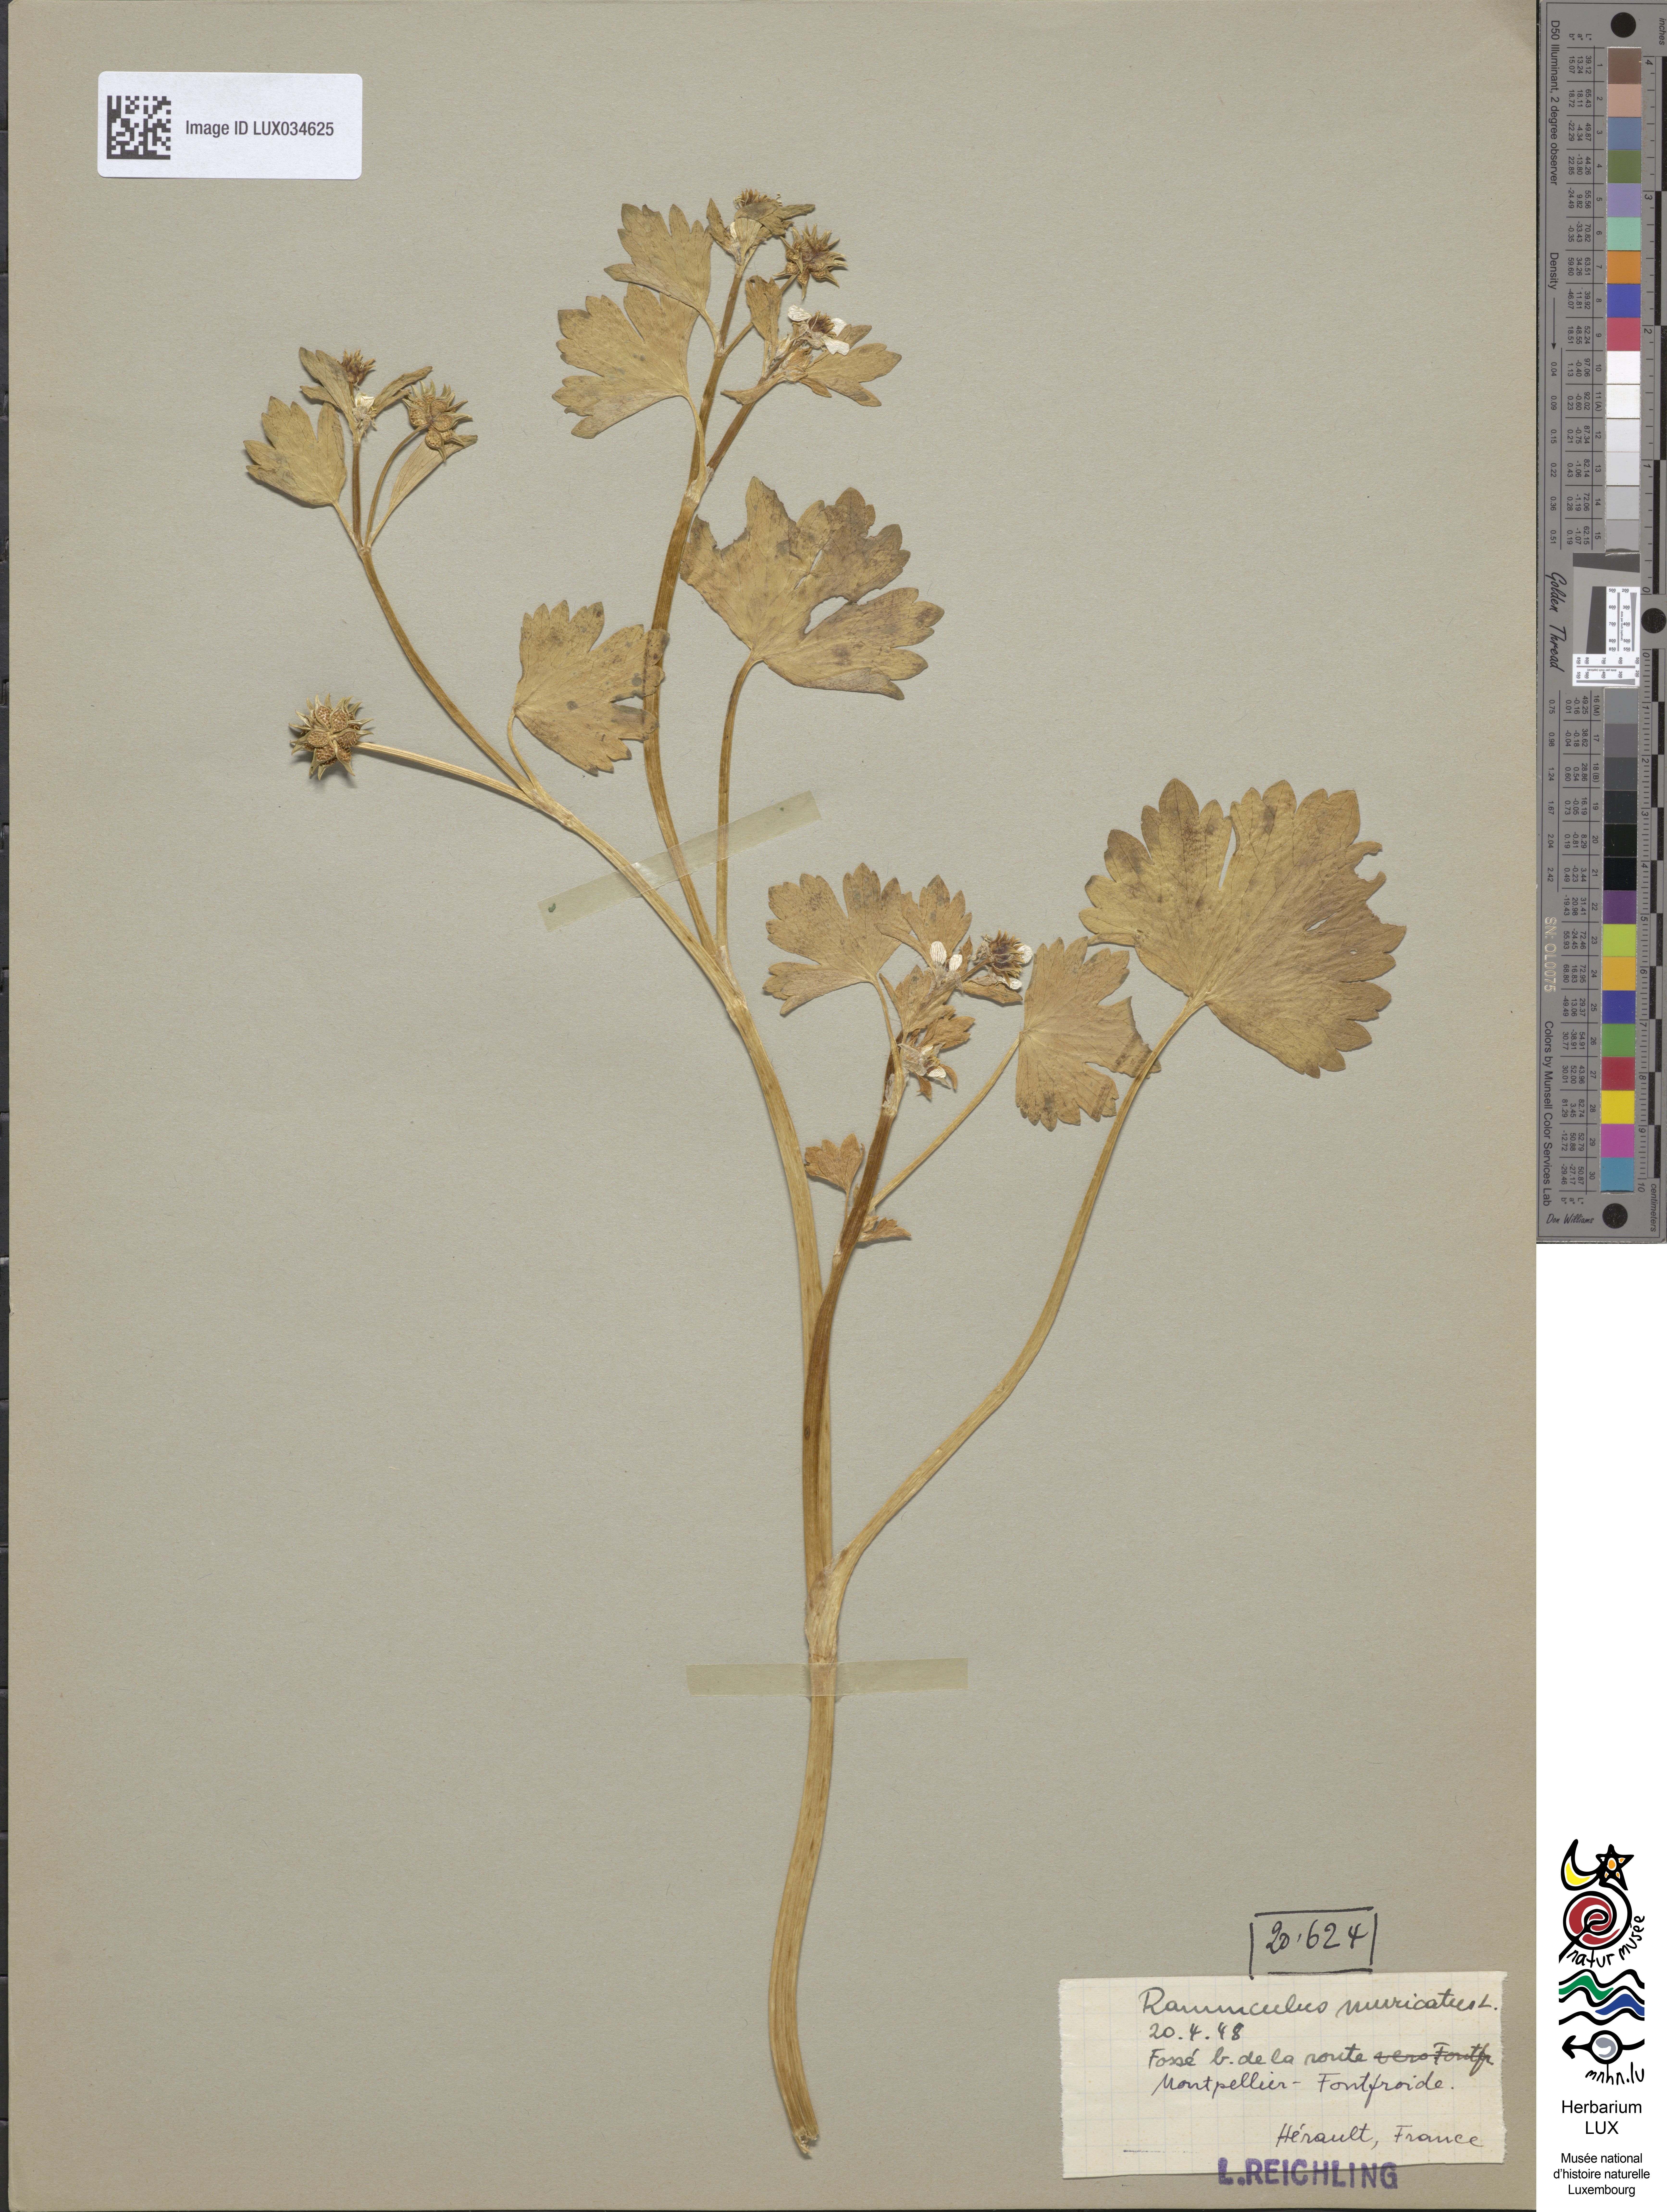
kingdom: Plantae
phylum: Tracheophyta
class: Magnoliopsida
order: Ranunculales
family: Ranunculaceae
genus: Ranunculus
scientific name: Ranunculus muricatus
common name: Rough-fruited buttercup
